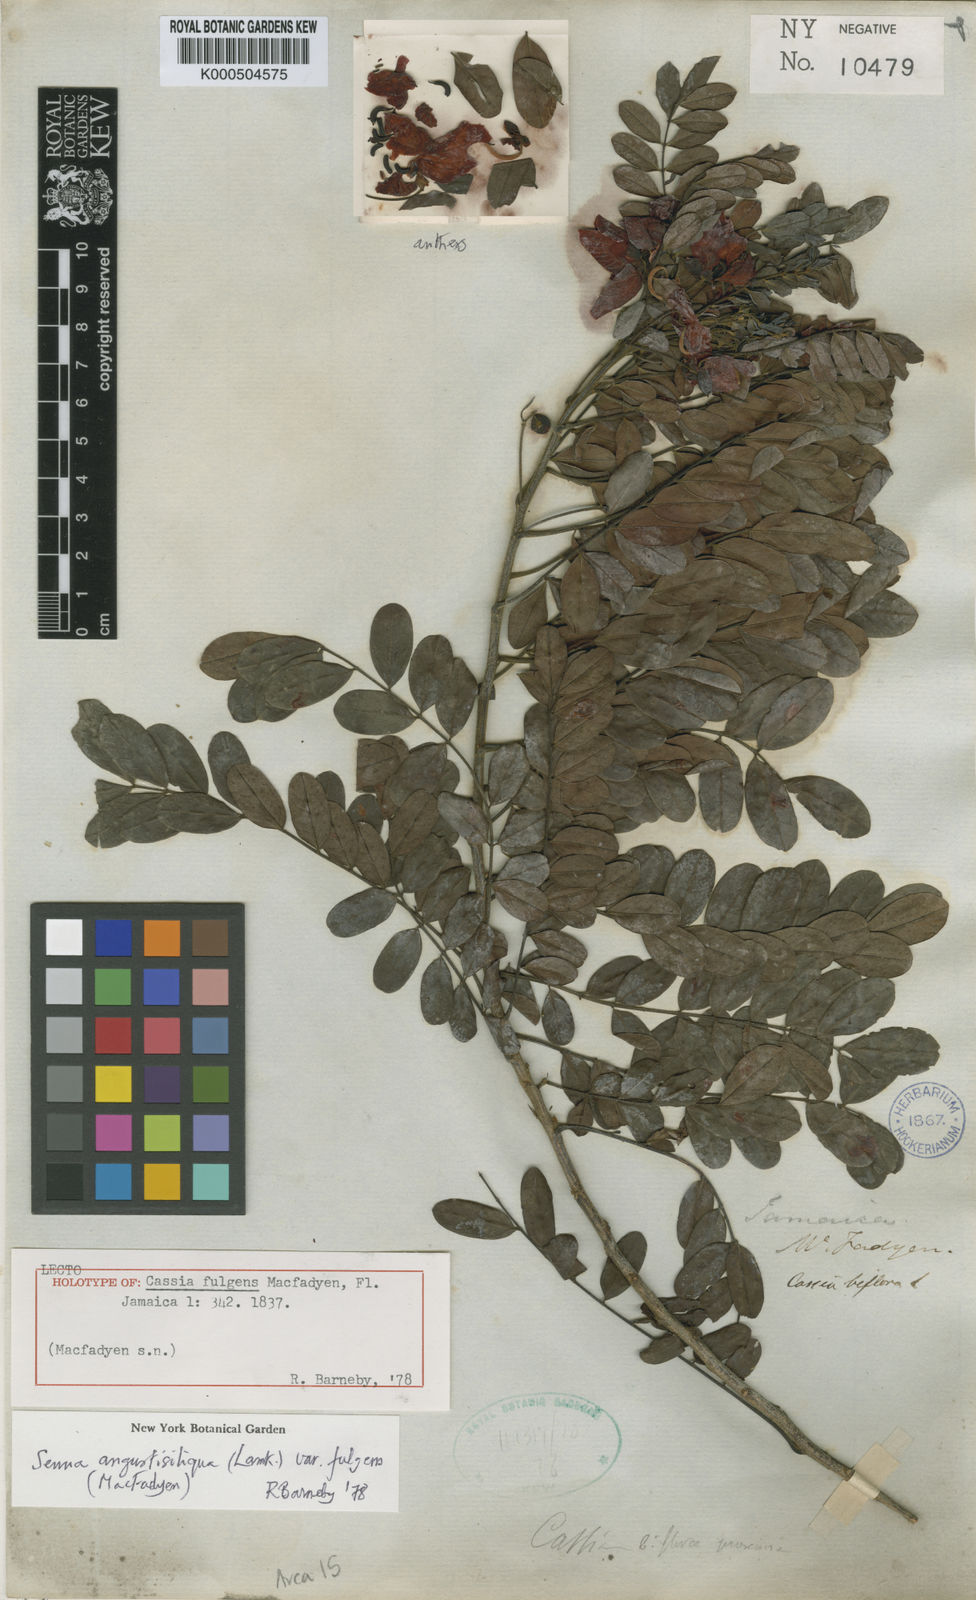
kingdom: Plantae
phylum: Tracheophyta
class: Magnoliopsida
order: Fabales
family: Fabaceae
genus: Senna
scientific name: Senna angustisiliqua
